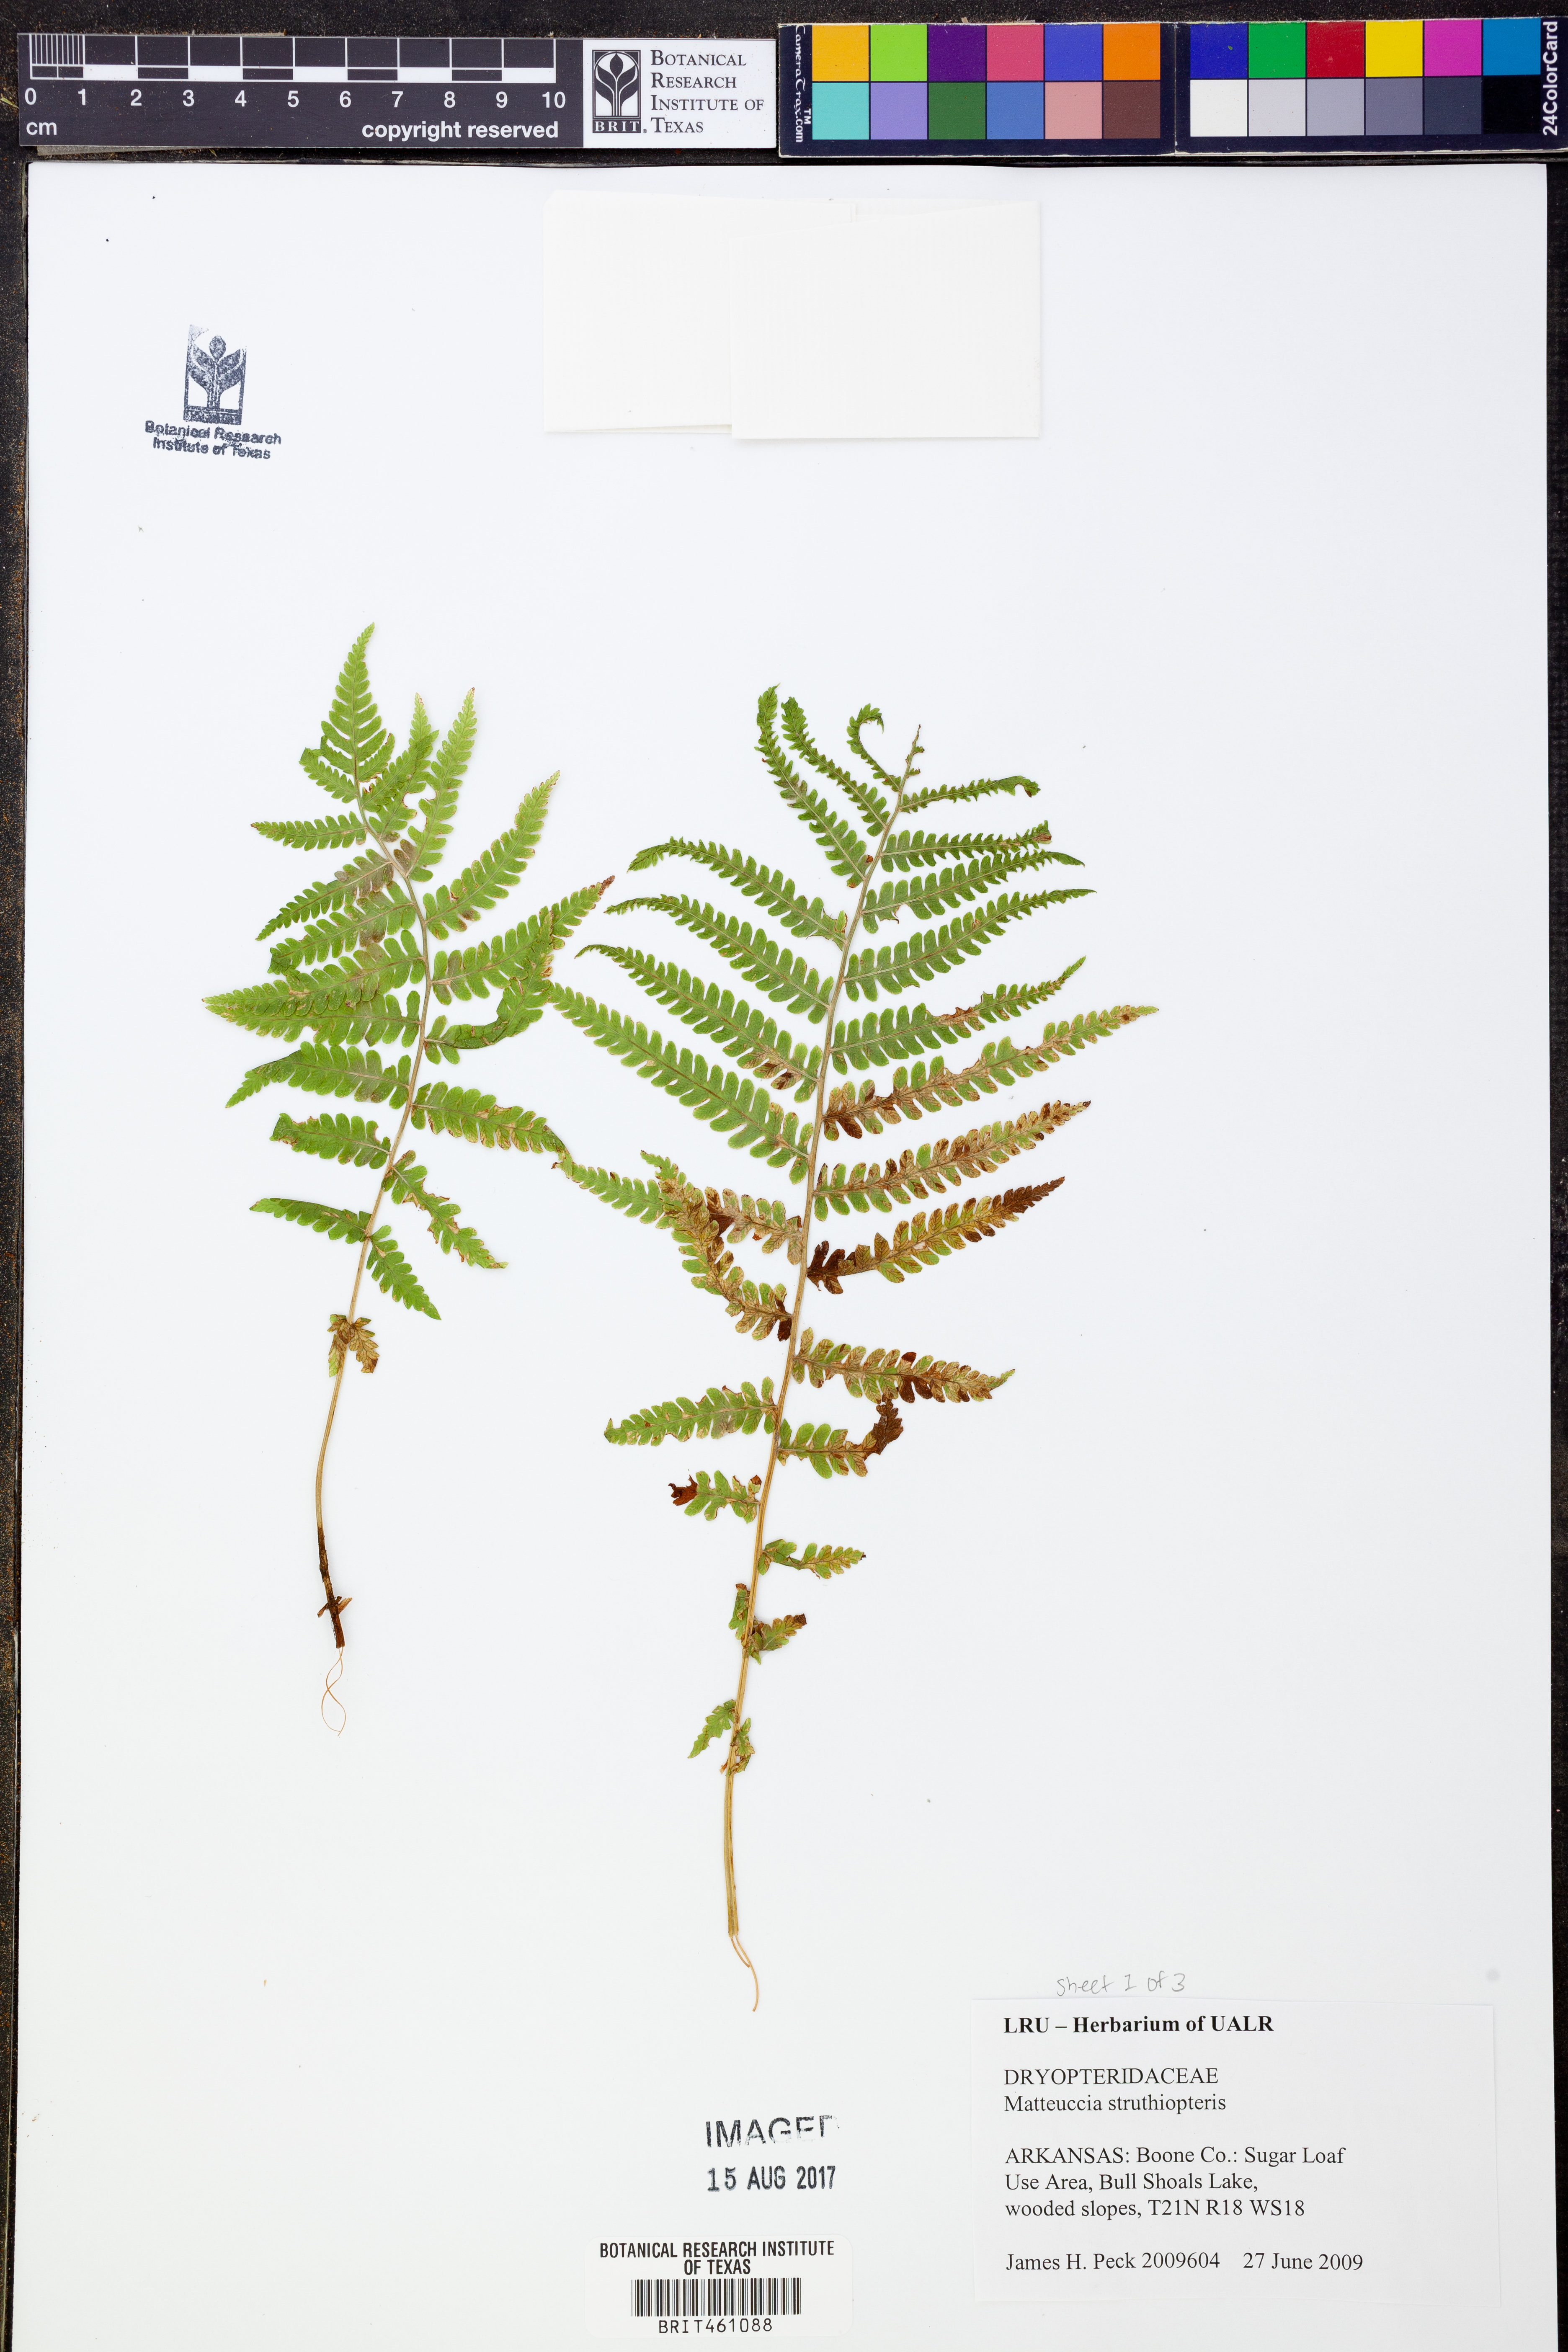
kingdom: Plantae
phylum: Tracheophyta
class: Polypodiopsida
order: Polypodiales
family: Onocleaceae
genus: Matteuccia
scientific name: Matteuccia struthiopteris
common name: Ostrich fern
